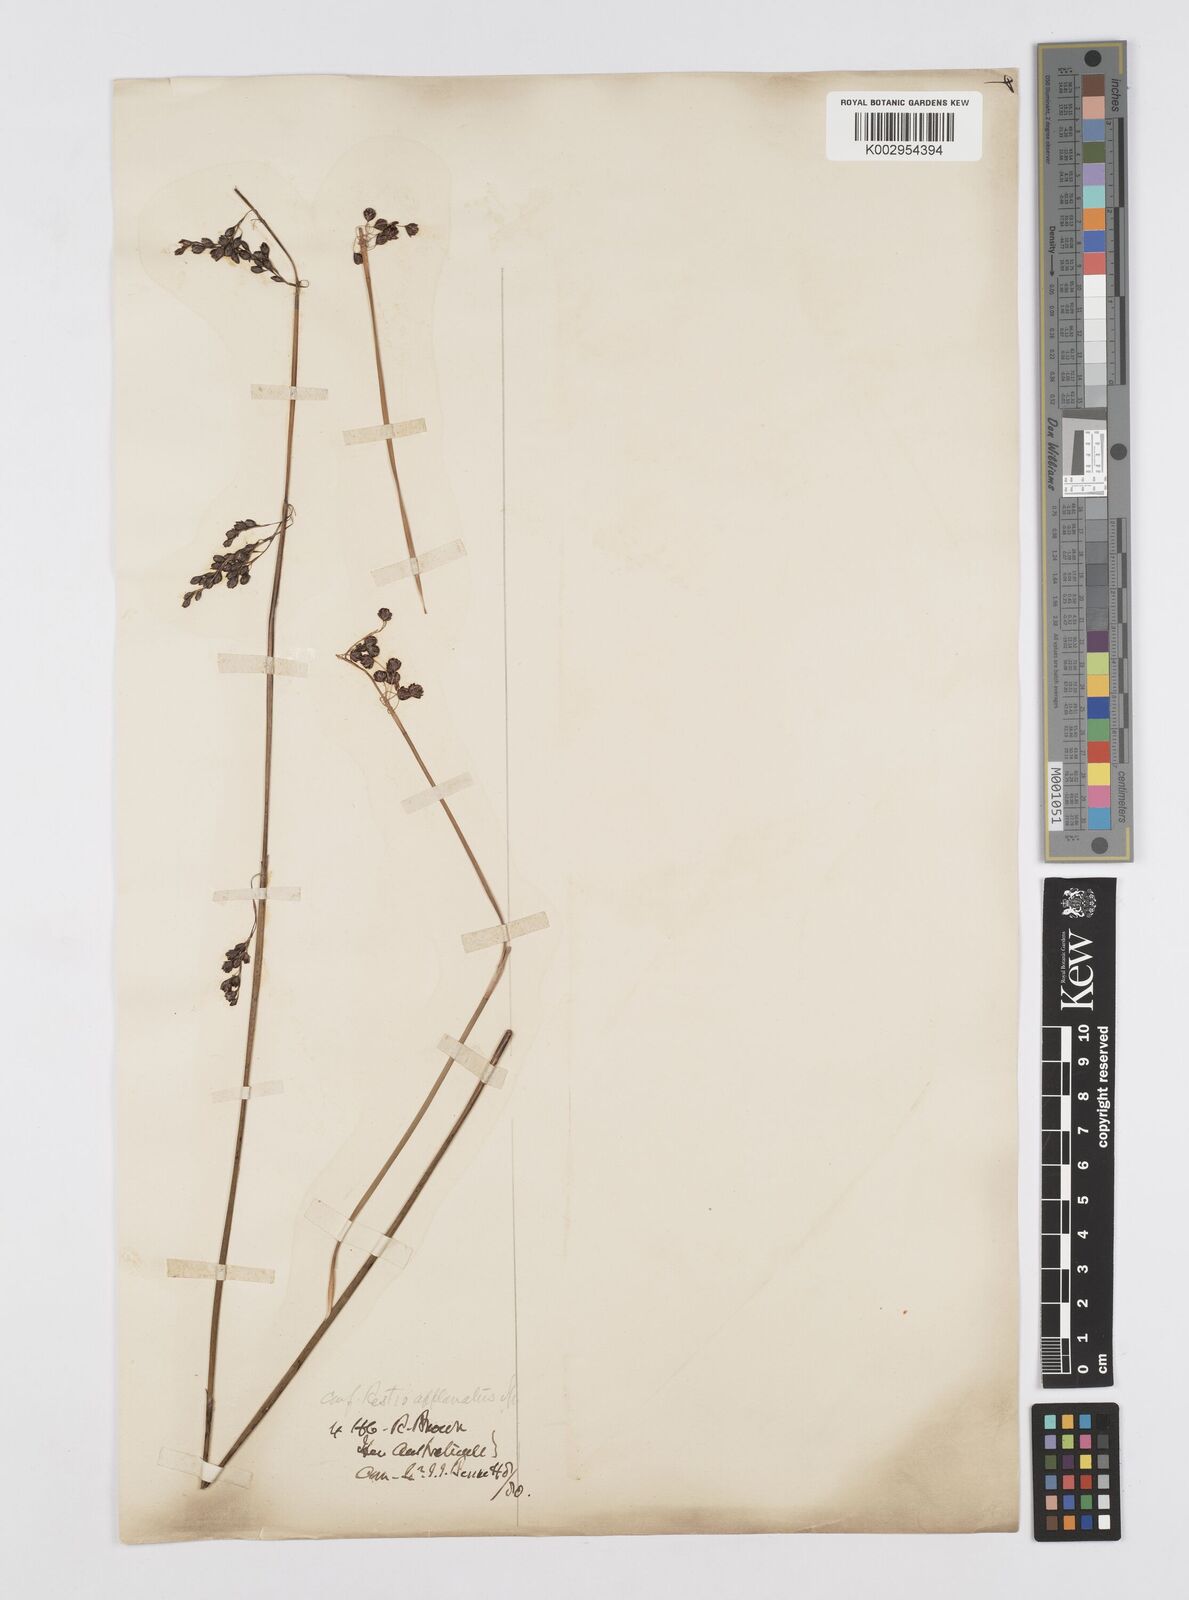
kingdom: Plantae
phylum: Tracheophyta
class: Liliopsida
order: Poales
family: Restionaceae
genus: Platychorda
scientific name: Platychorda applanata
